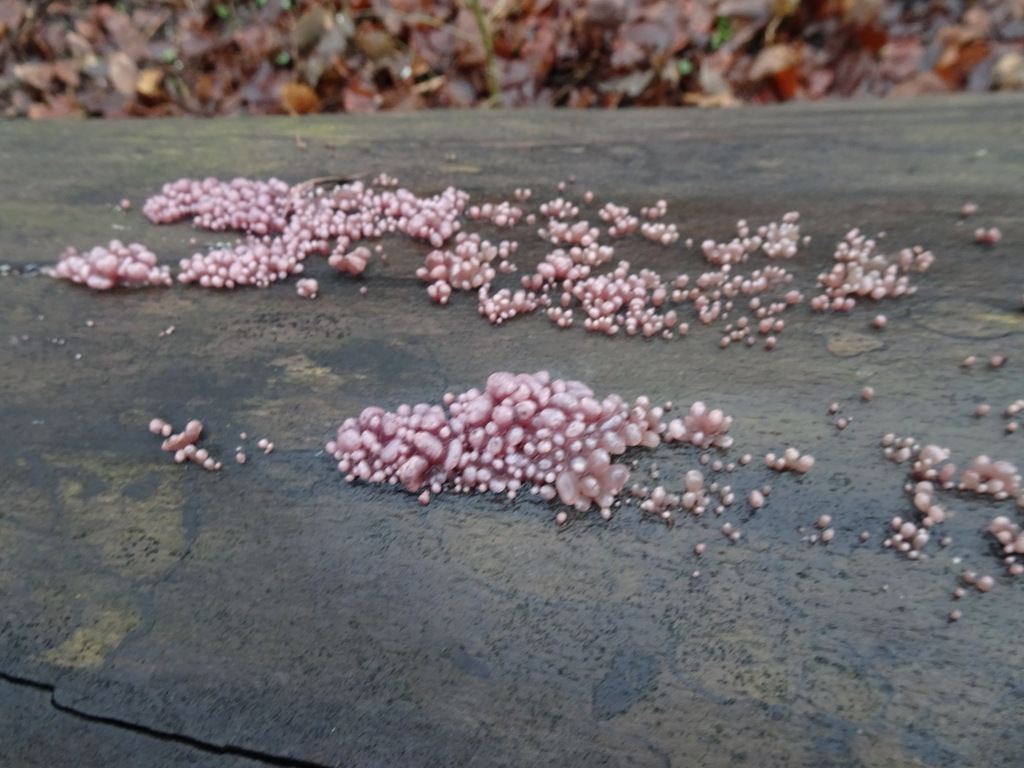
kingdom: Fungi
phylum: Ascomycota
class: Leotiomycetes
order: Helotiales
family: Gelatinodiscaceae
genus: Ascocoryne
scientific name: Ascocoryne sarcoides
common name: rødlilla sejskive
